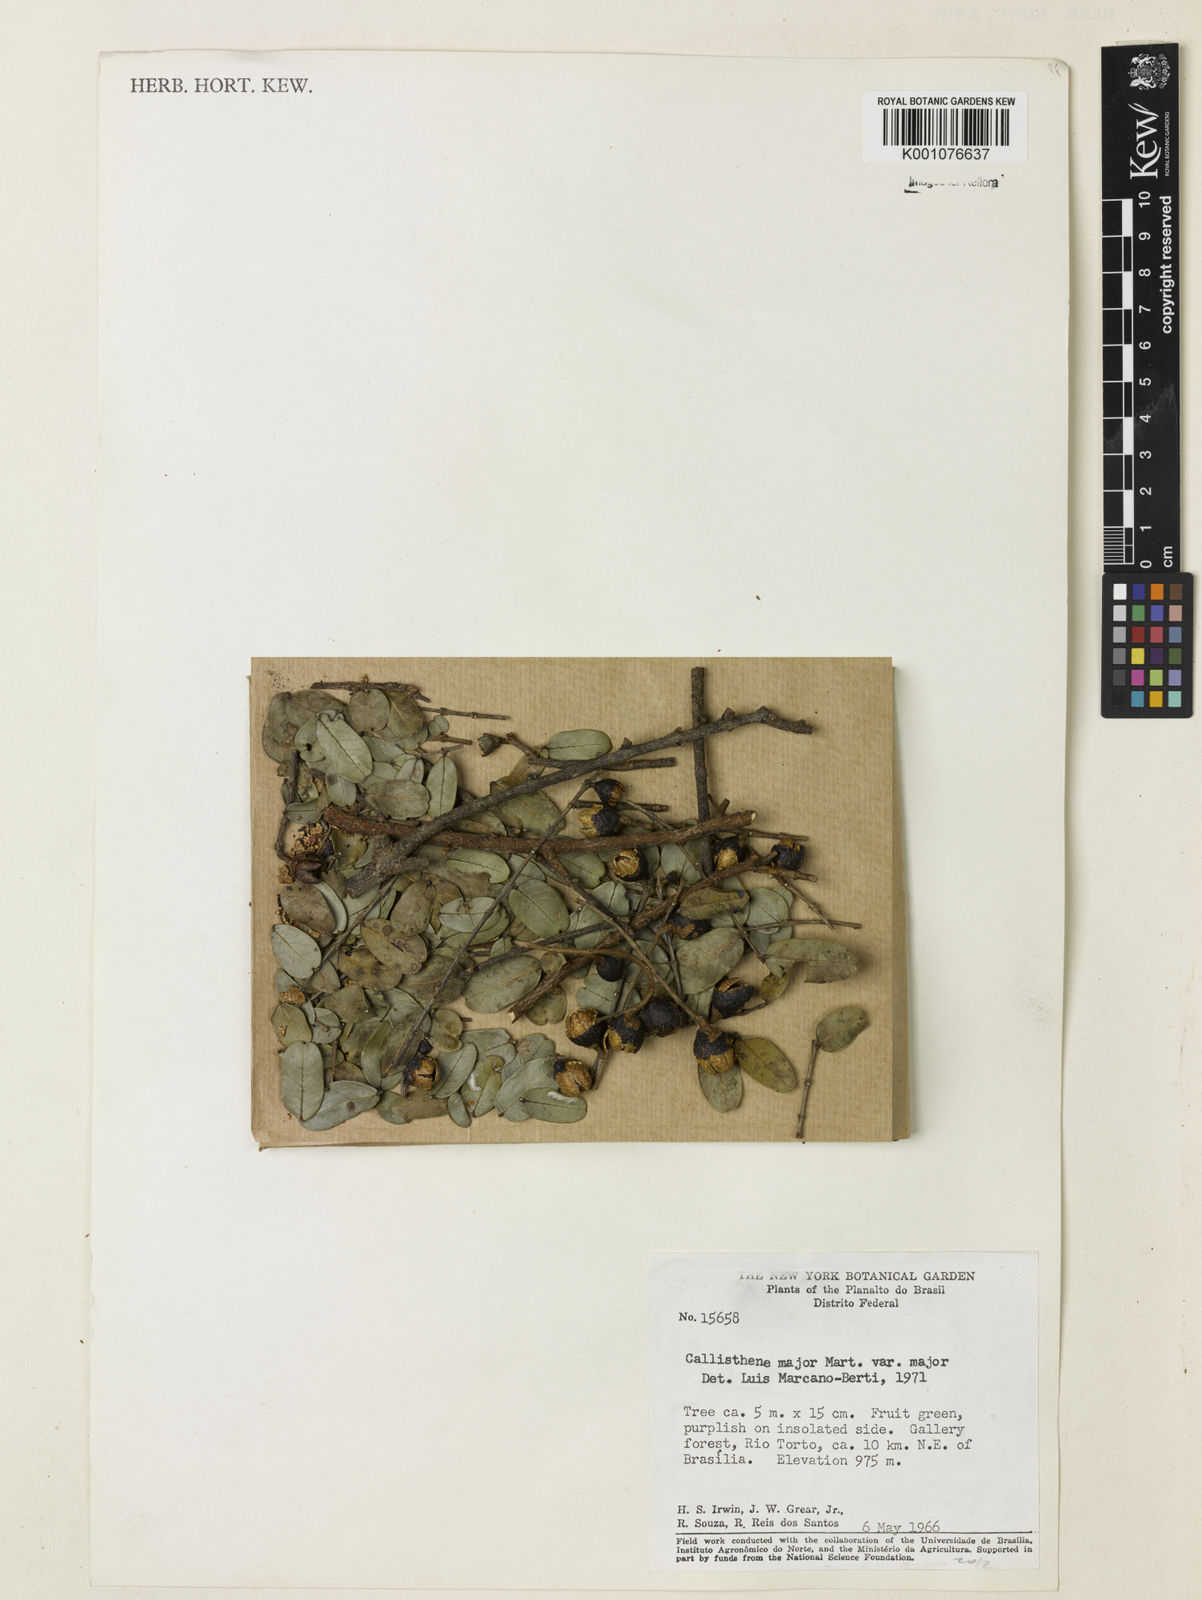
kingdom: Plantae
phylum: Tracheophyta
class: Magnoliopsida
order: Myrtales
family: Vochysiaceae
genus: Callisthene
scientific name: Callisthene major
